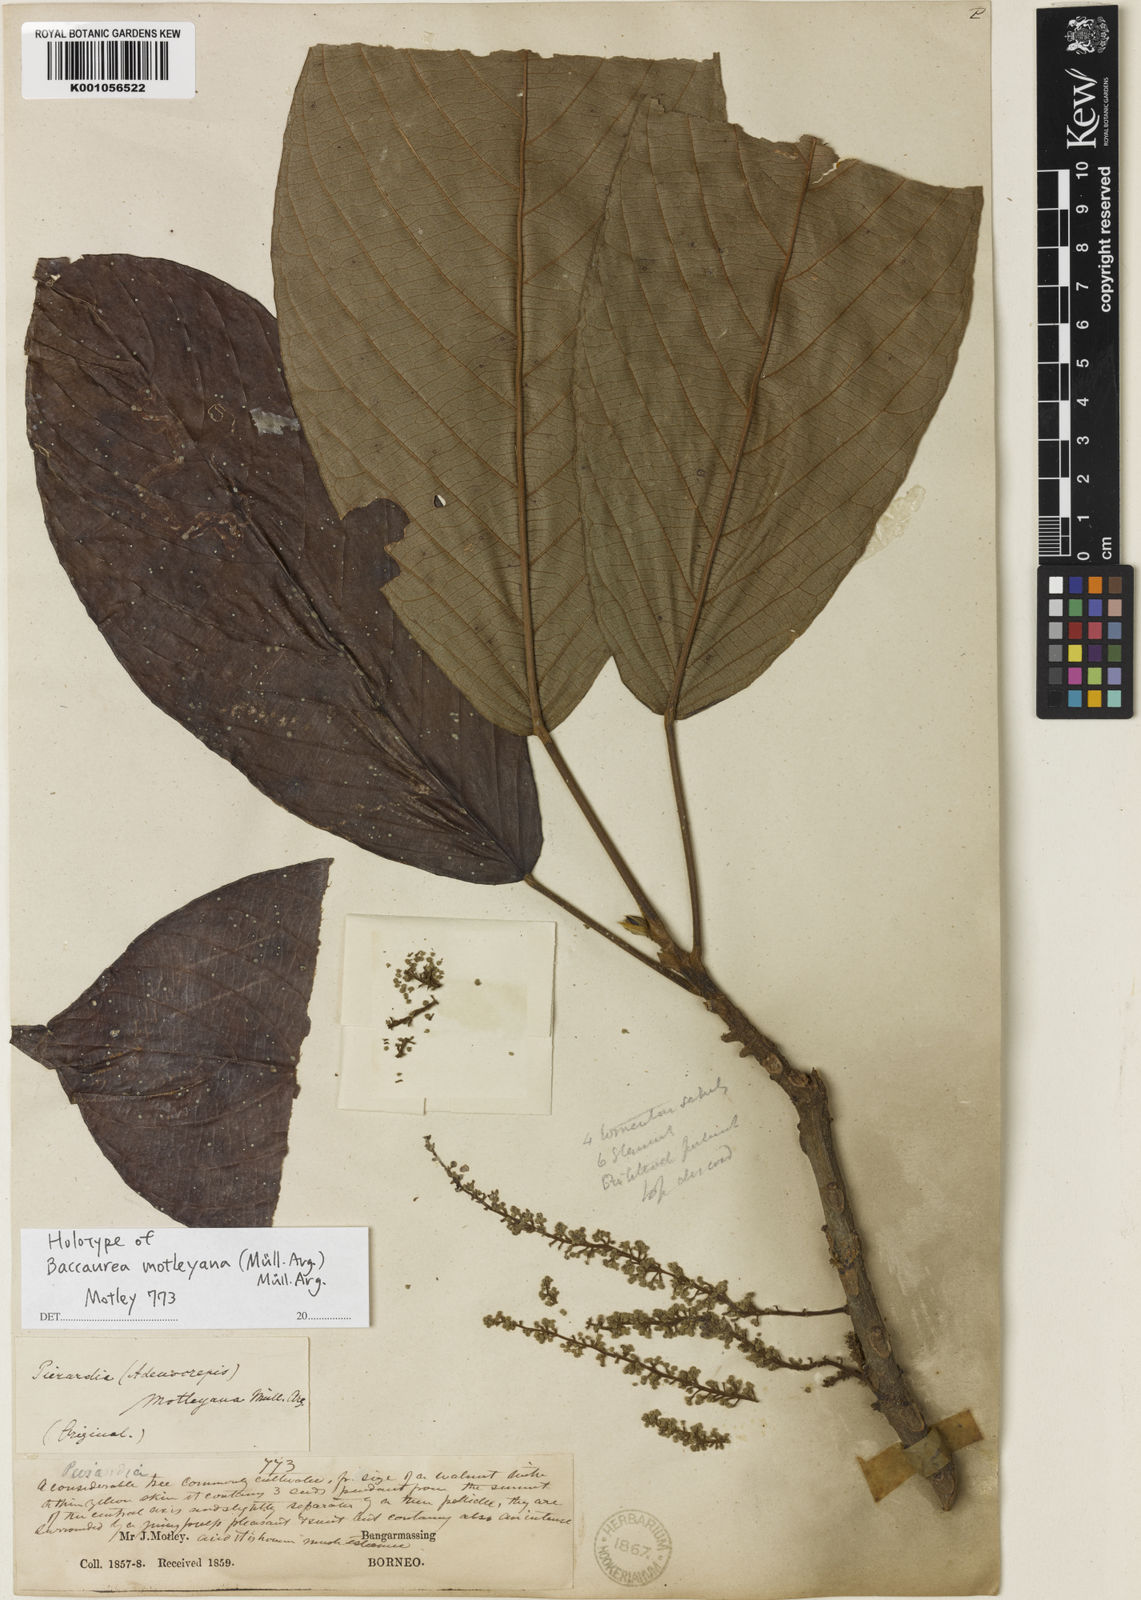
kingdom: Plantae
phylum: Tracheophyta
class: Magnoliopsida
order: Malpighiales
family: Phyllanthaceae
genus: Baccaurea
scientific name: Baccaurea
